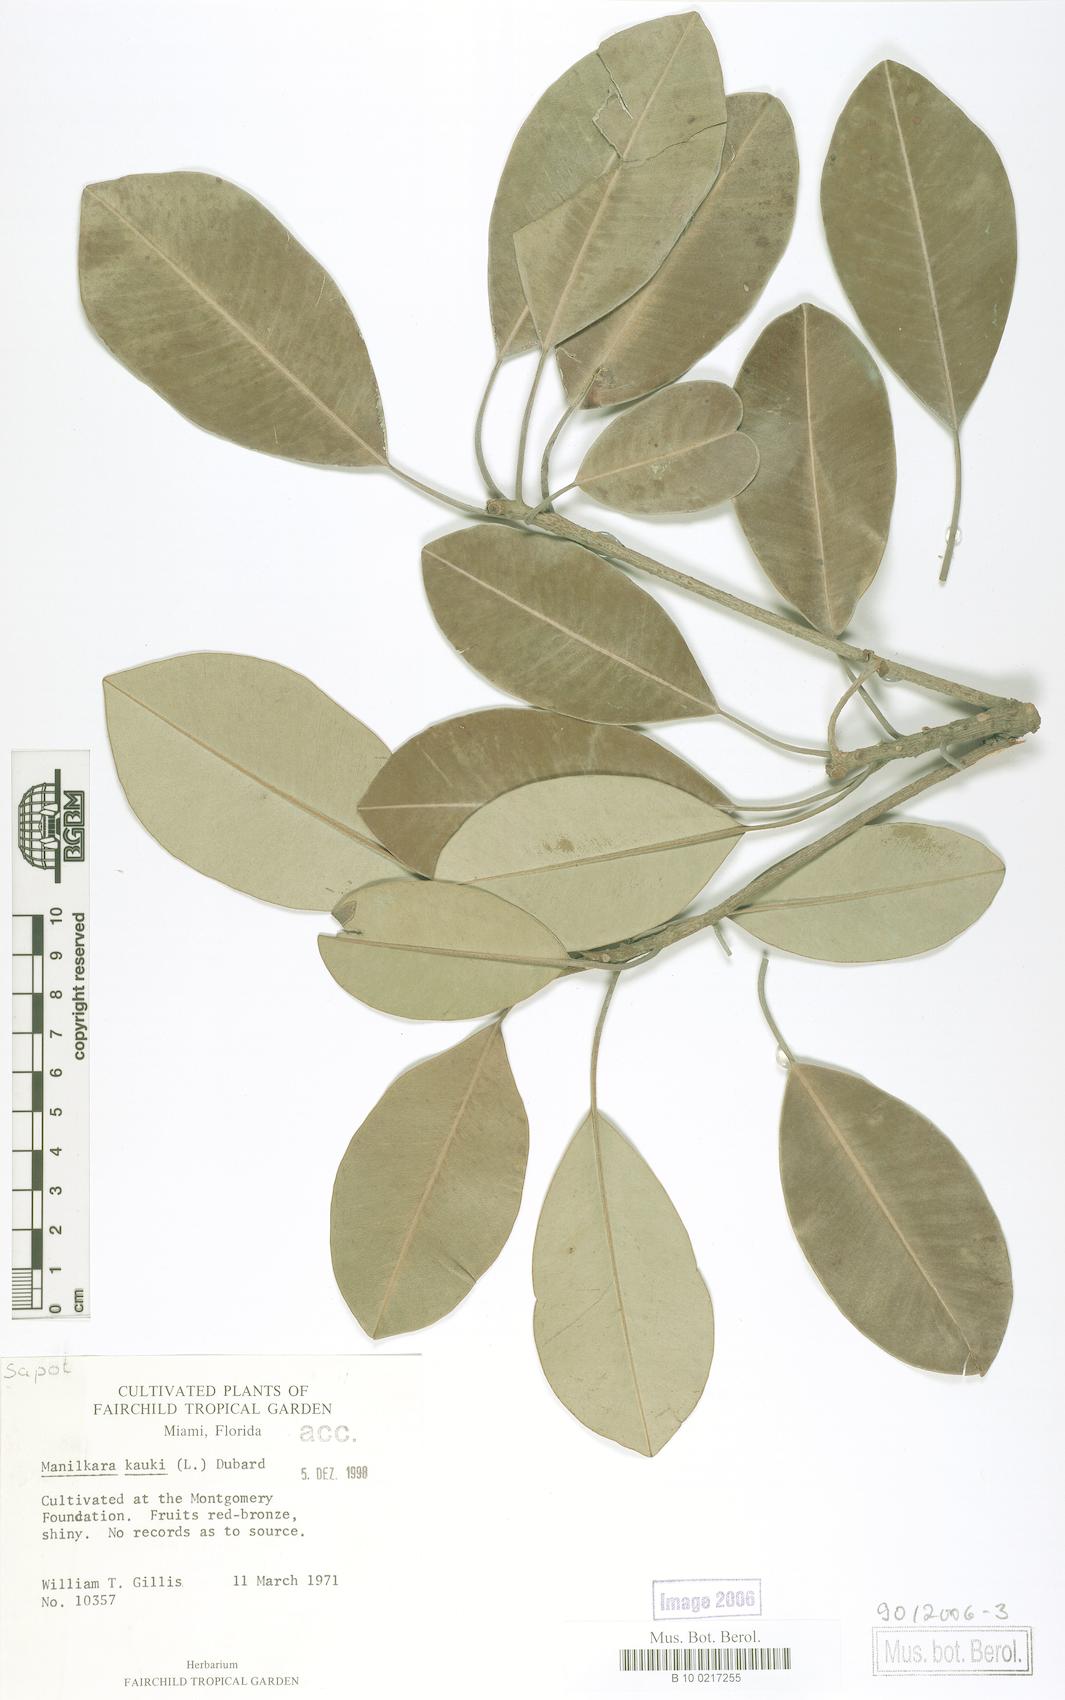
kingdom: Plantae
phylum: Tracheophyta
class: Magnoliopsida
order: Ericales
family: Sapotaceae
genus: Manilkara
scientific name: Manilkara kauki
